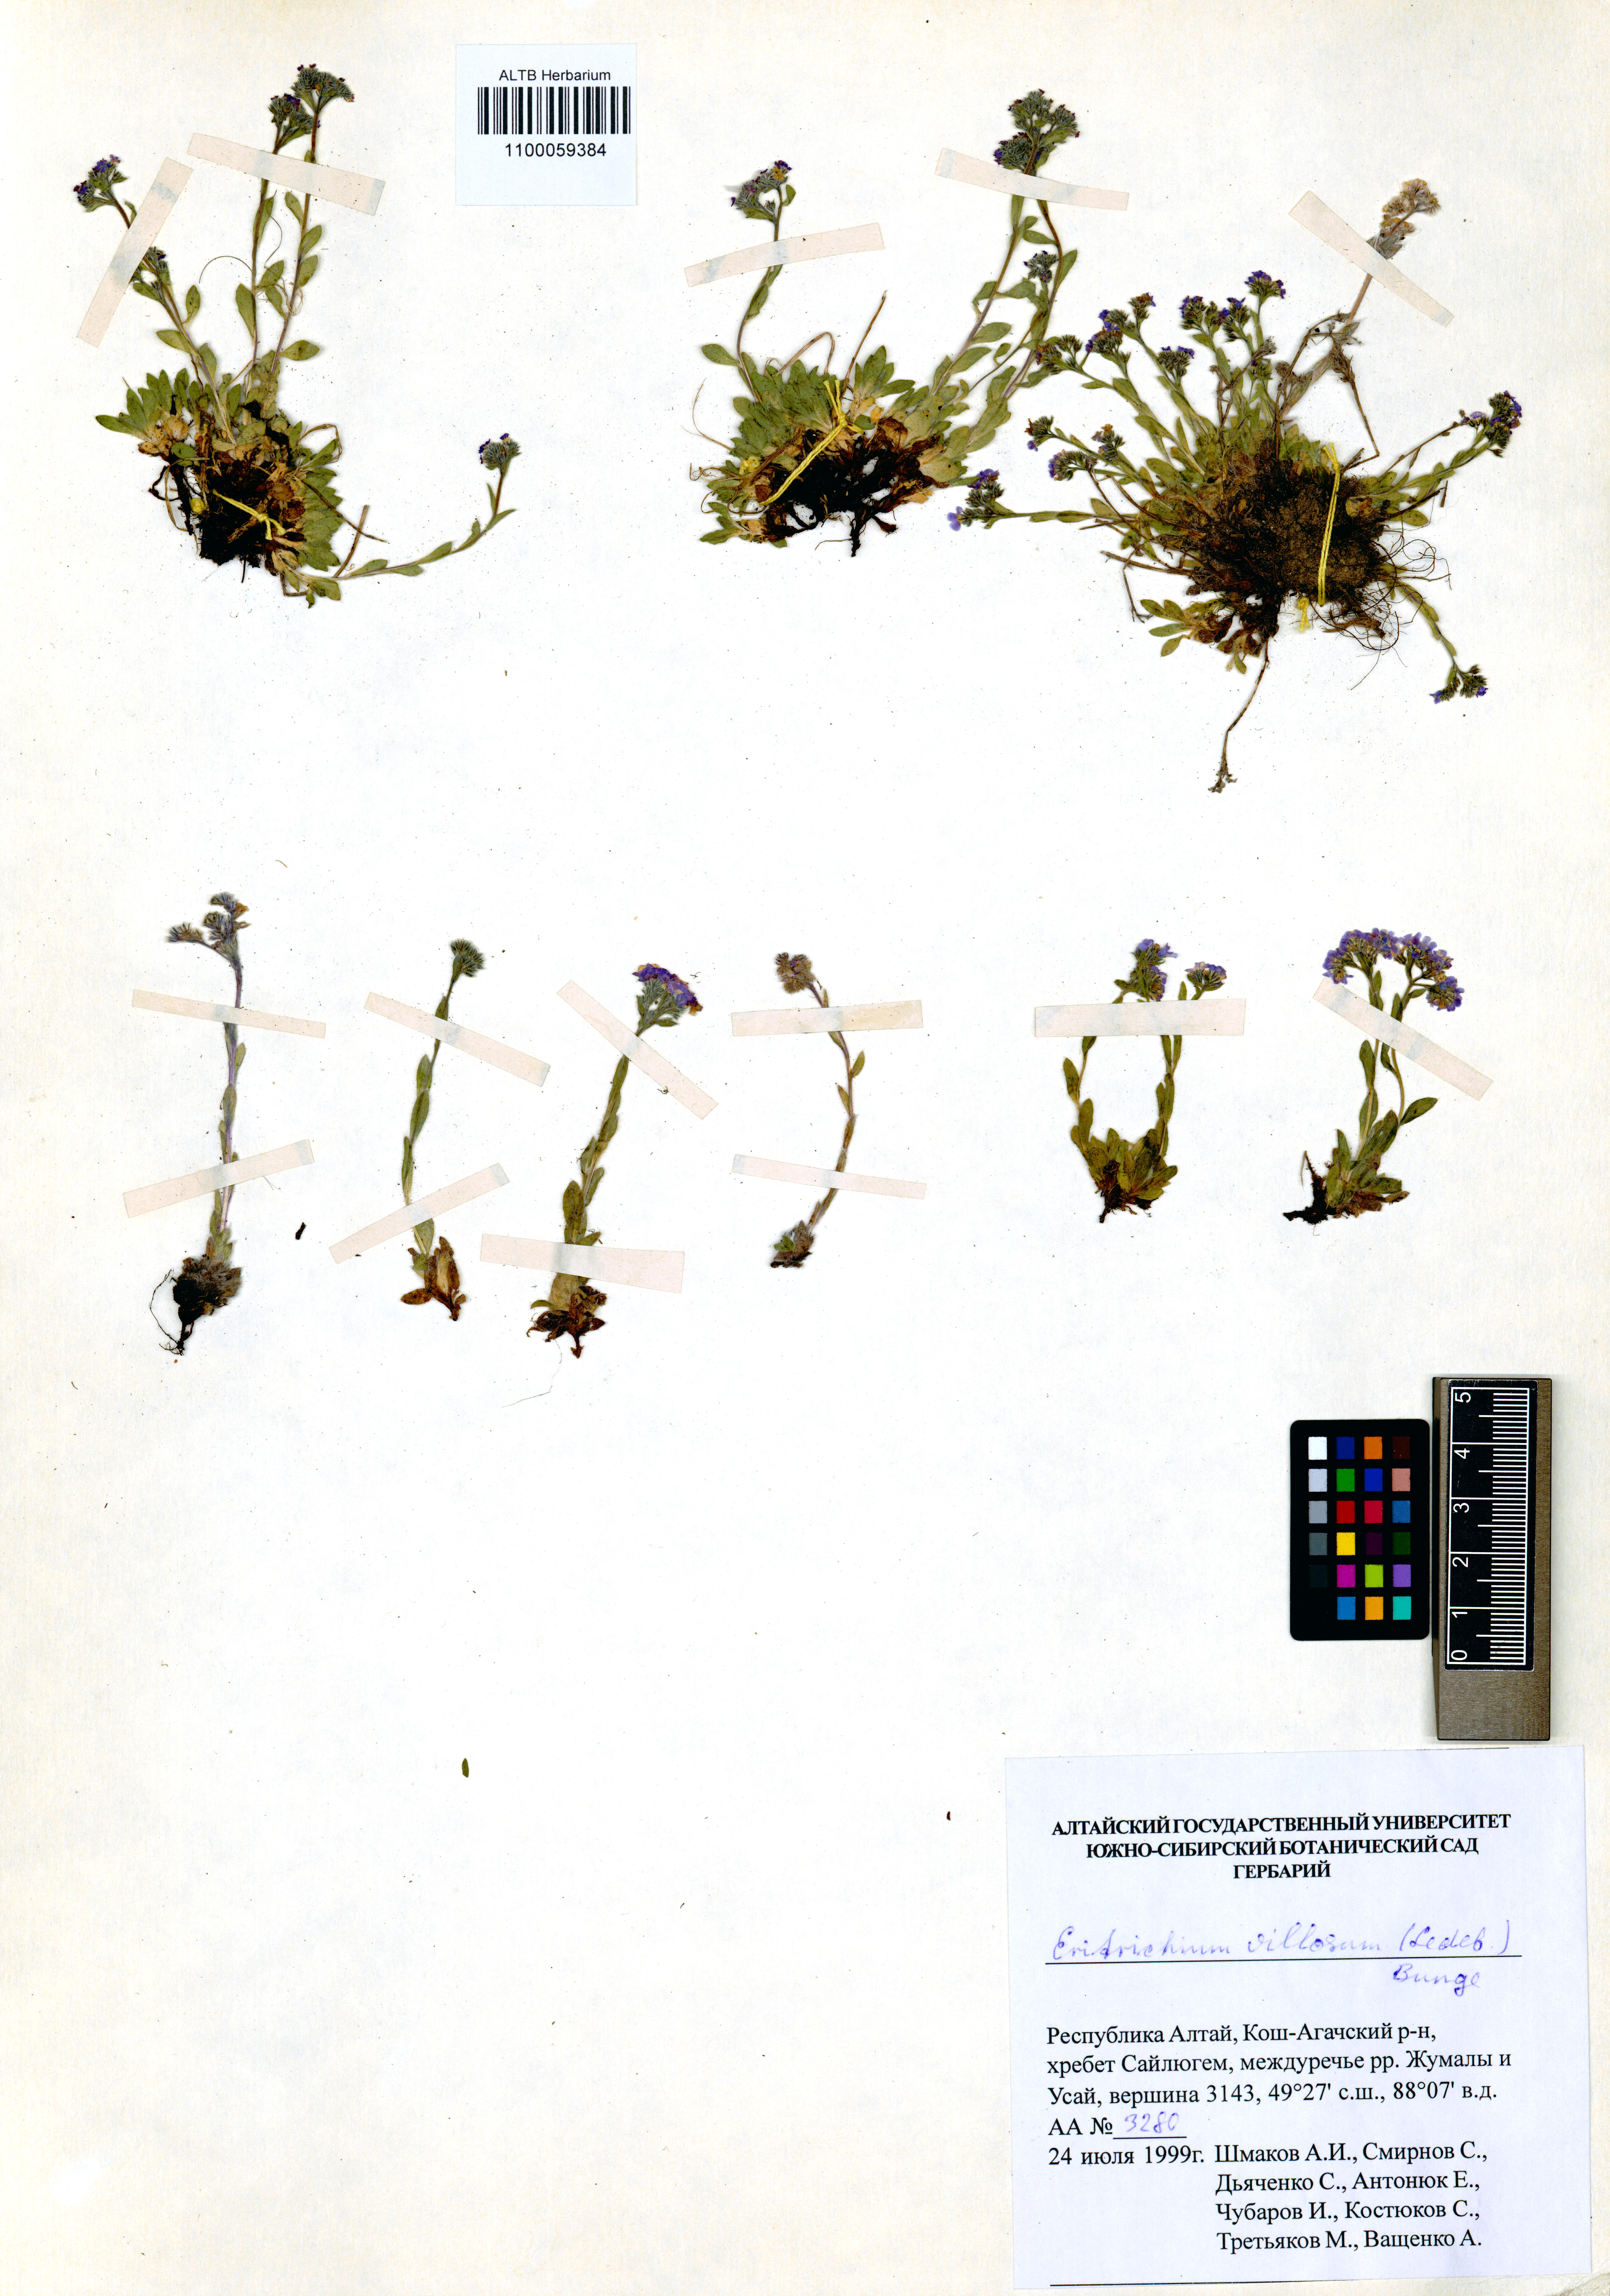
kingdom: Plantae
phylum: Tracheophyta
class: Magnoliopsida
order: Boraginales
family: Boraginaceae
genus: Eritrichium
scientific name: Eritrichium villosum
